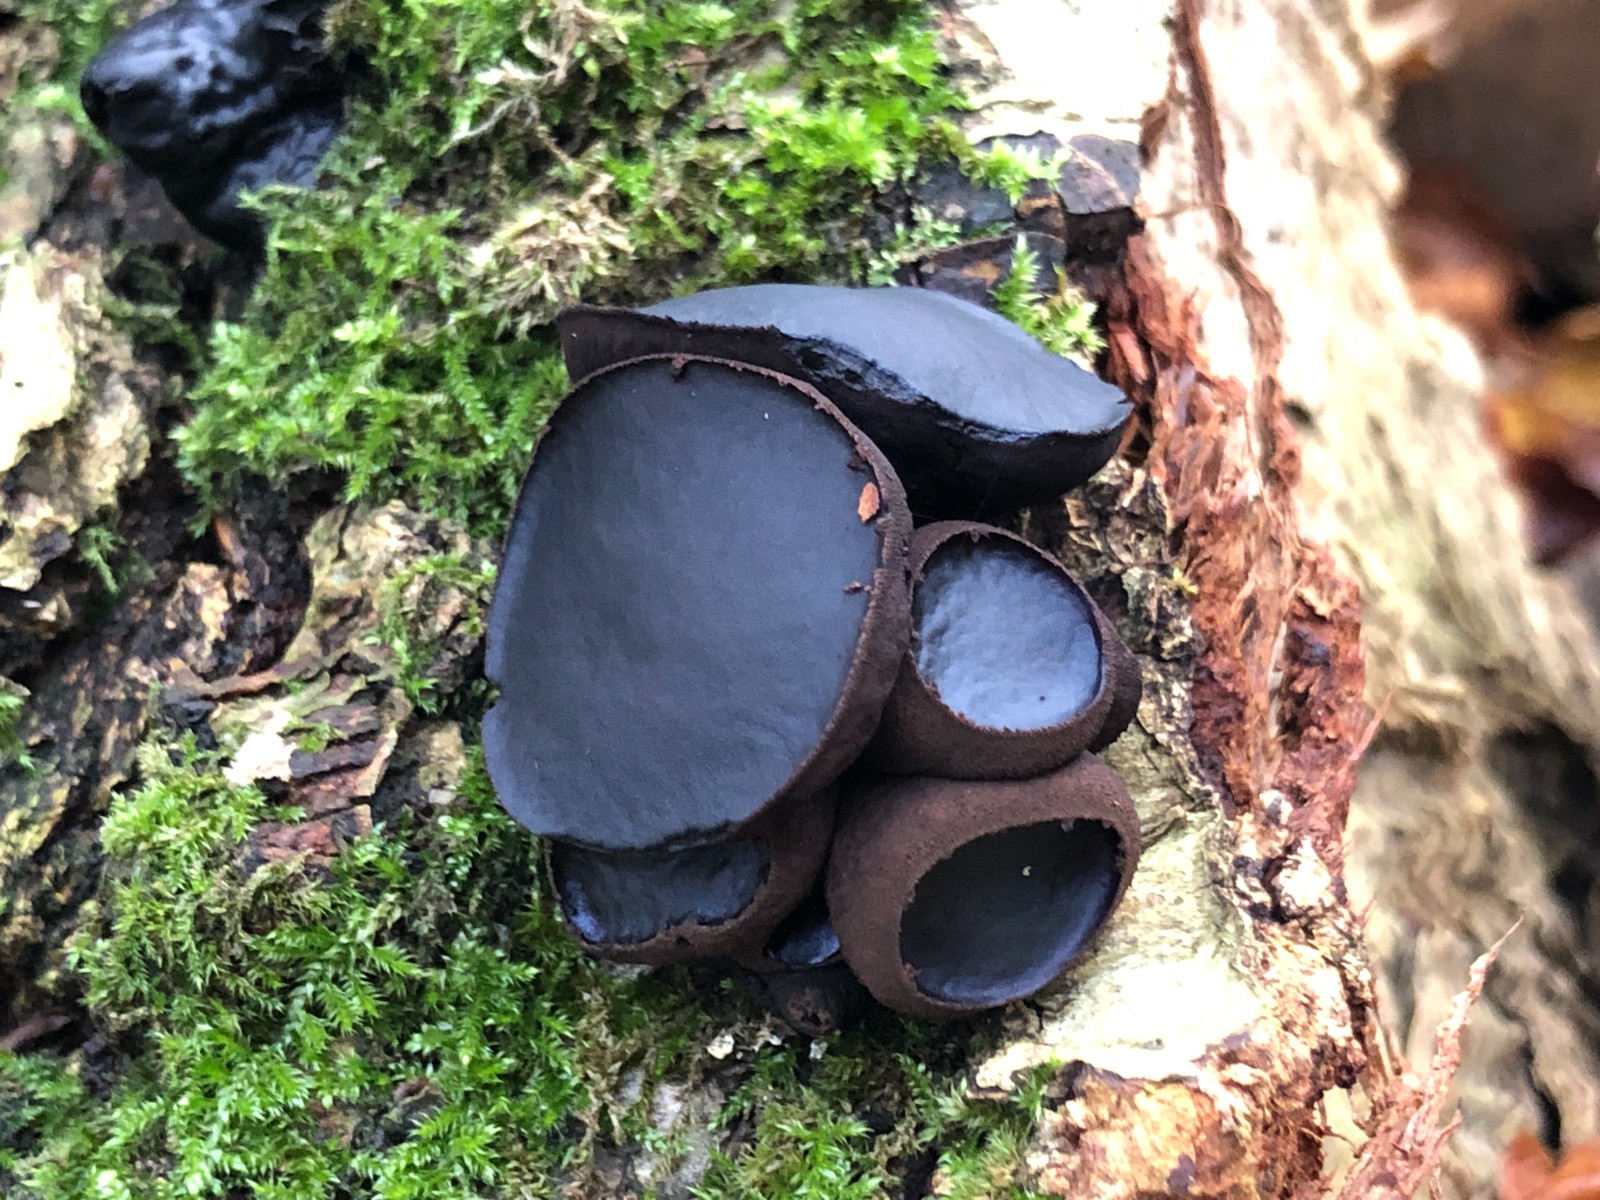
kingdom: Fungi
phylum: Ascomycota
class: Leotiomycetes
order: Phacidiales
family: Phacidiaceae
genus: Bulgaria
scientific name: Bulgaria inquinans
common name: afsmittende topsvamp
